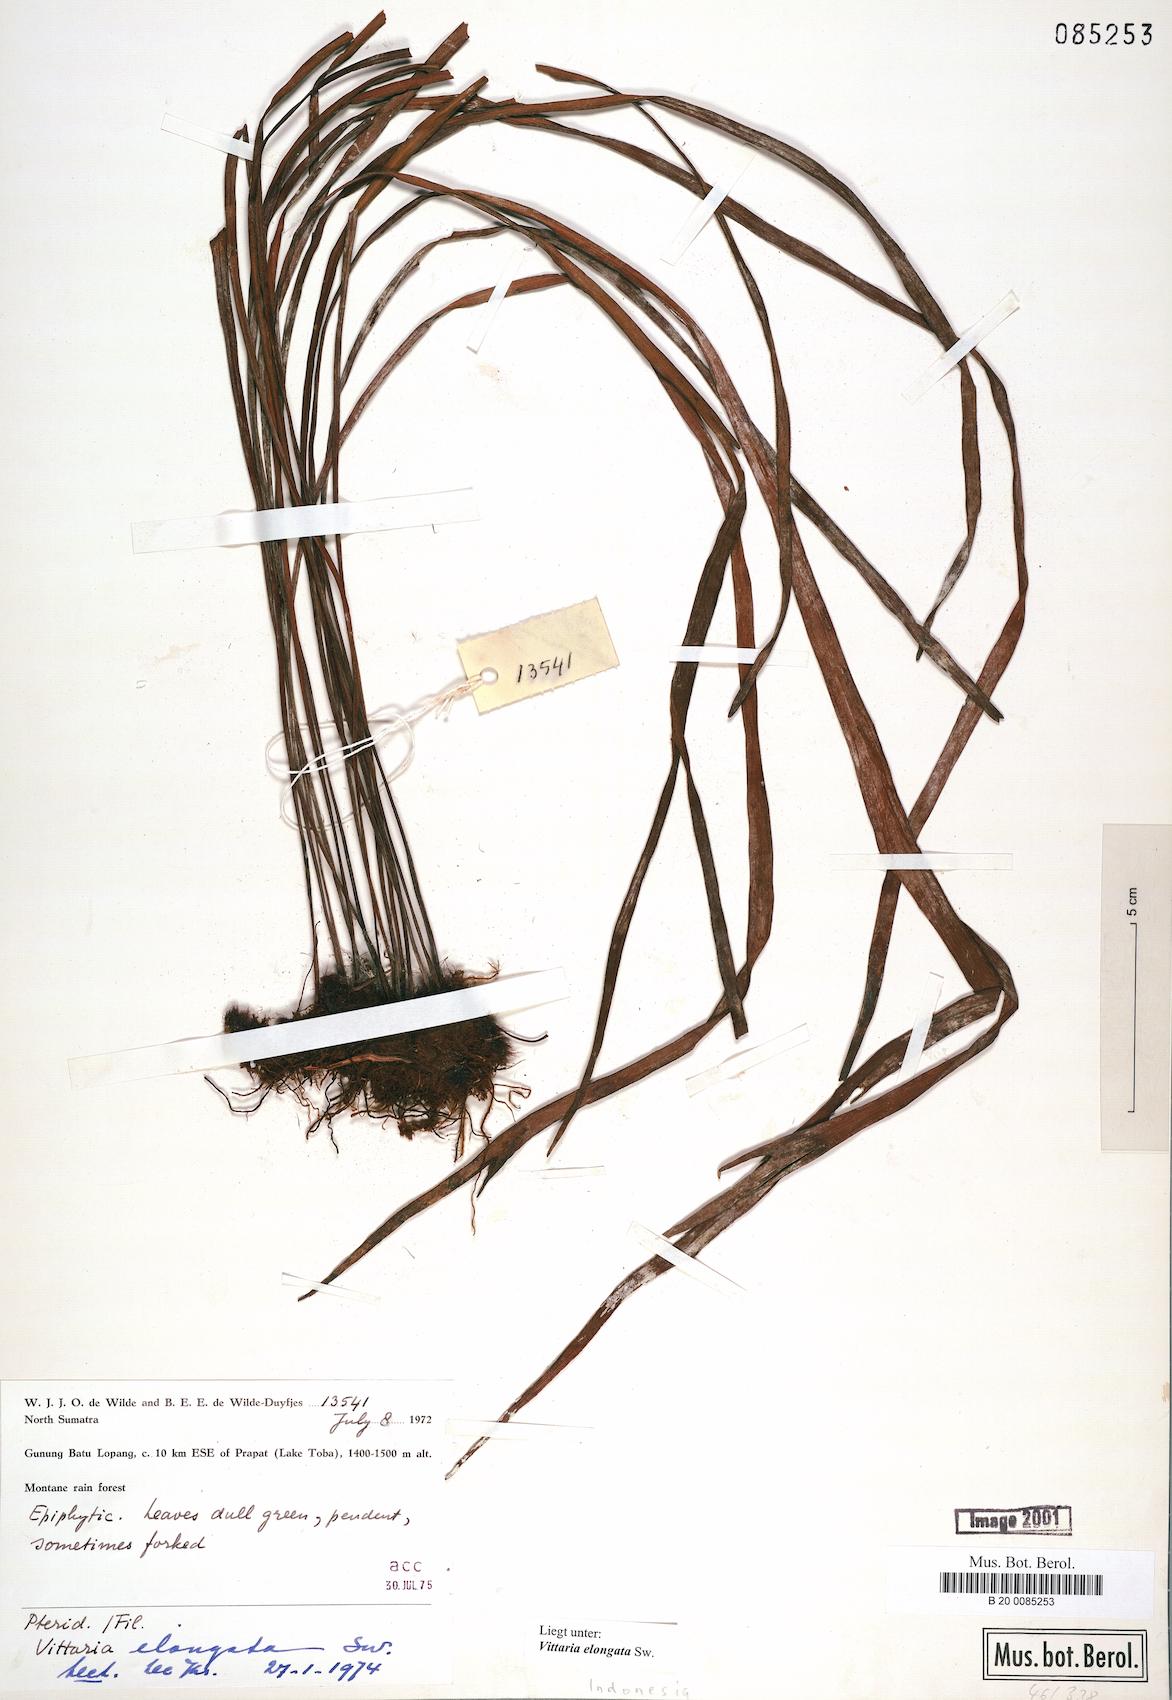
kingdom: Plantae
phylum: Tracheophyta
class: Polypodiopsida
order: Polypodiales
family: Pteridaceae
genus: Haplopteris
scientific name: Haplopteris elongata
